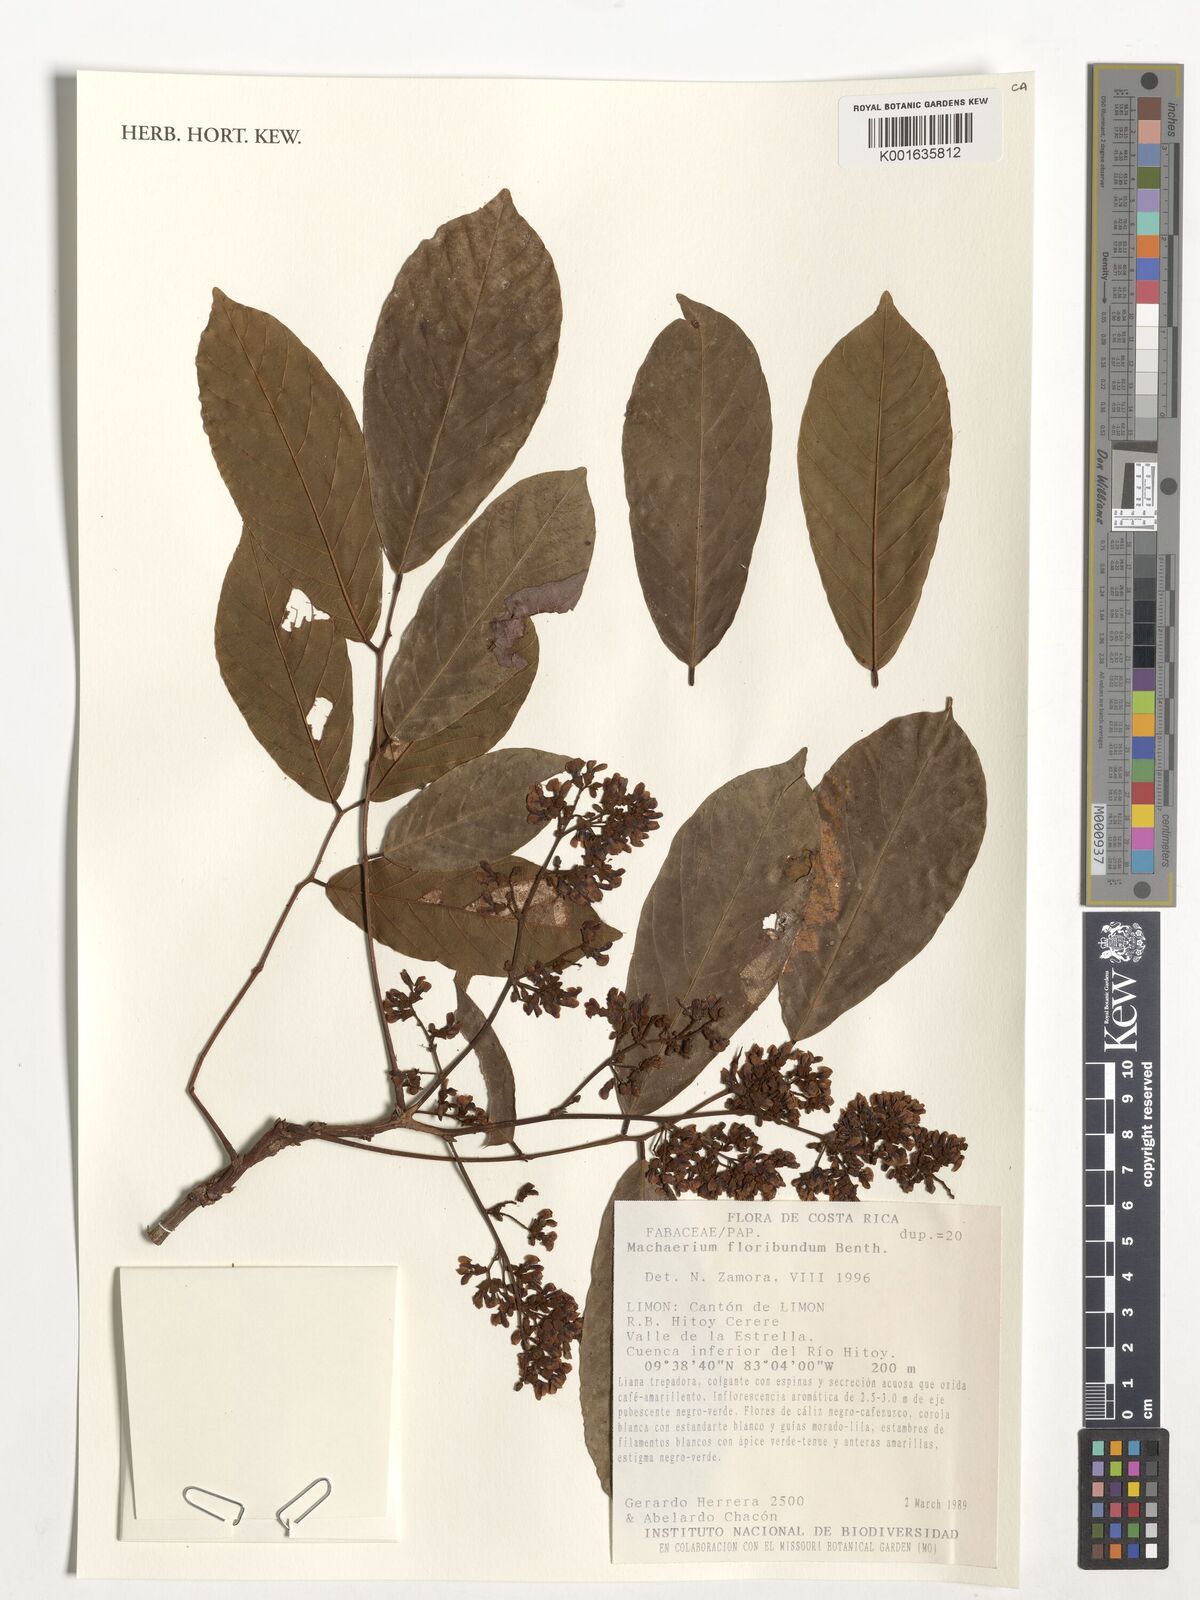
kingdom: Plantae
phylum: Tracheophyta
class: Magnoliopsida
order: Fabales
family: Fabaceae
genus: Machaerium
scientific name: Machaerium floribundum
